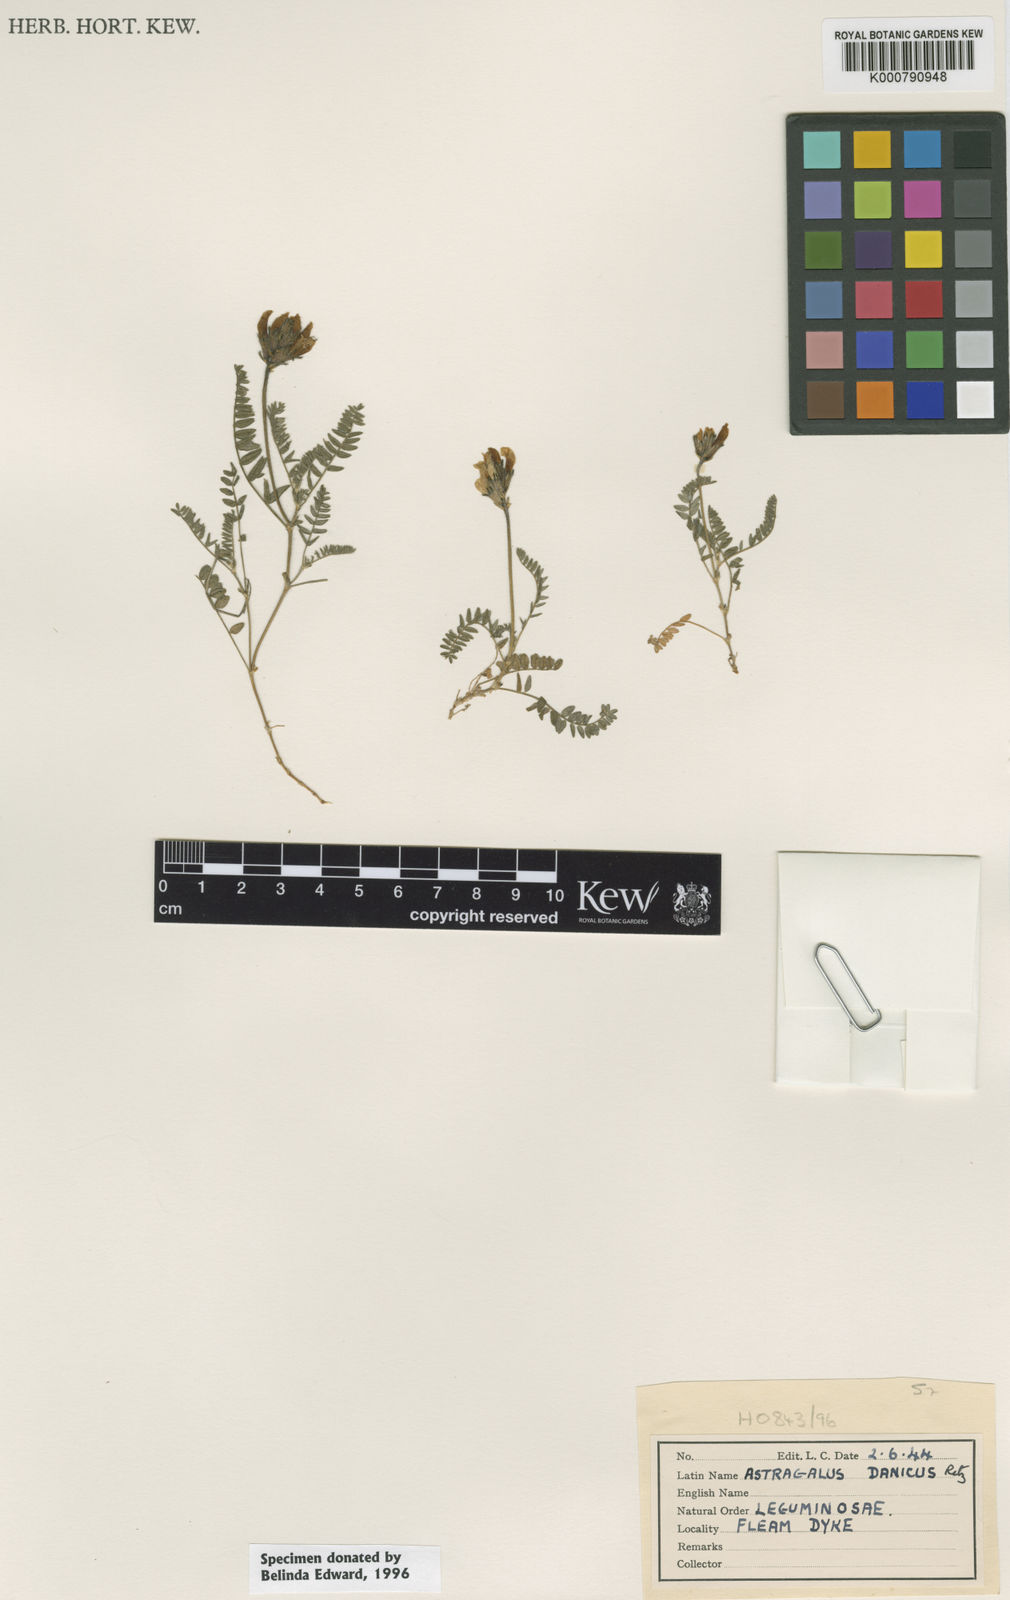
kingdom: Plantae
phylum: Tracheophyta
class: Magnoliopsida
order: Fabales
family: Fabaceae
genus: Astragalus
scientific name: Astragalus danicus
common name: Purple milk-vetch
